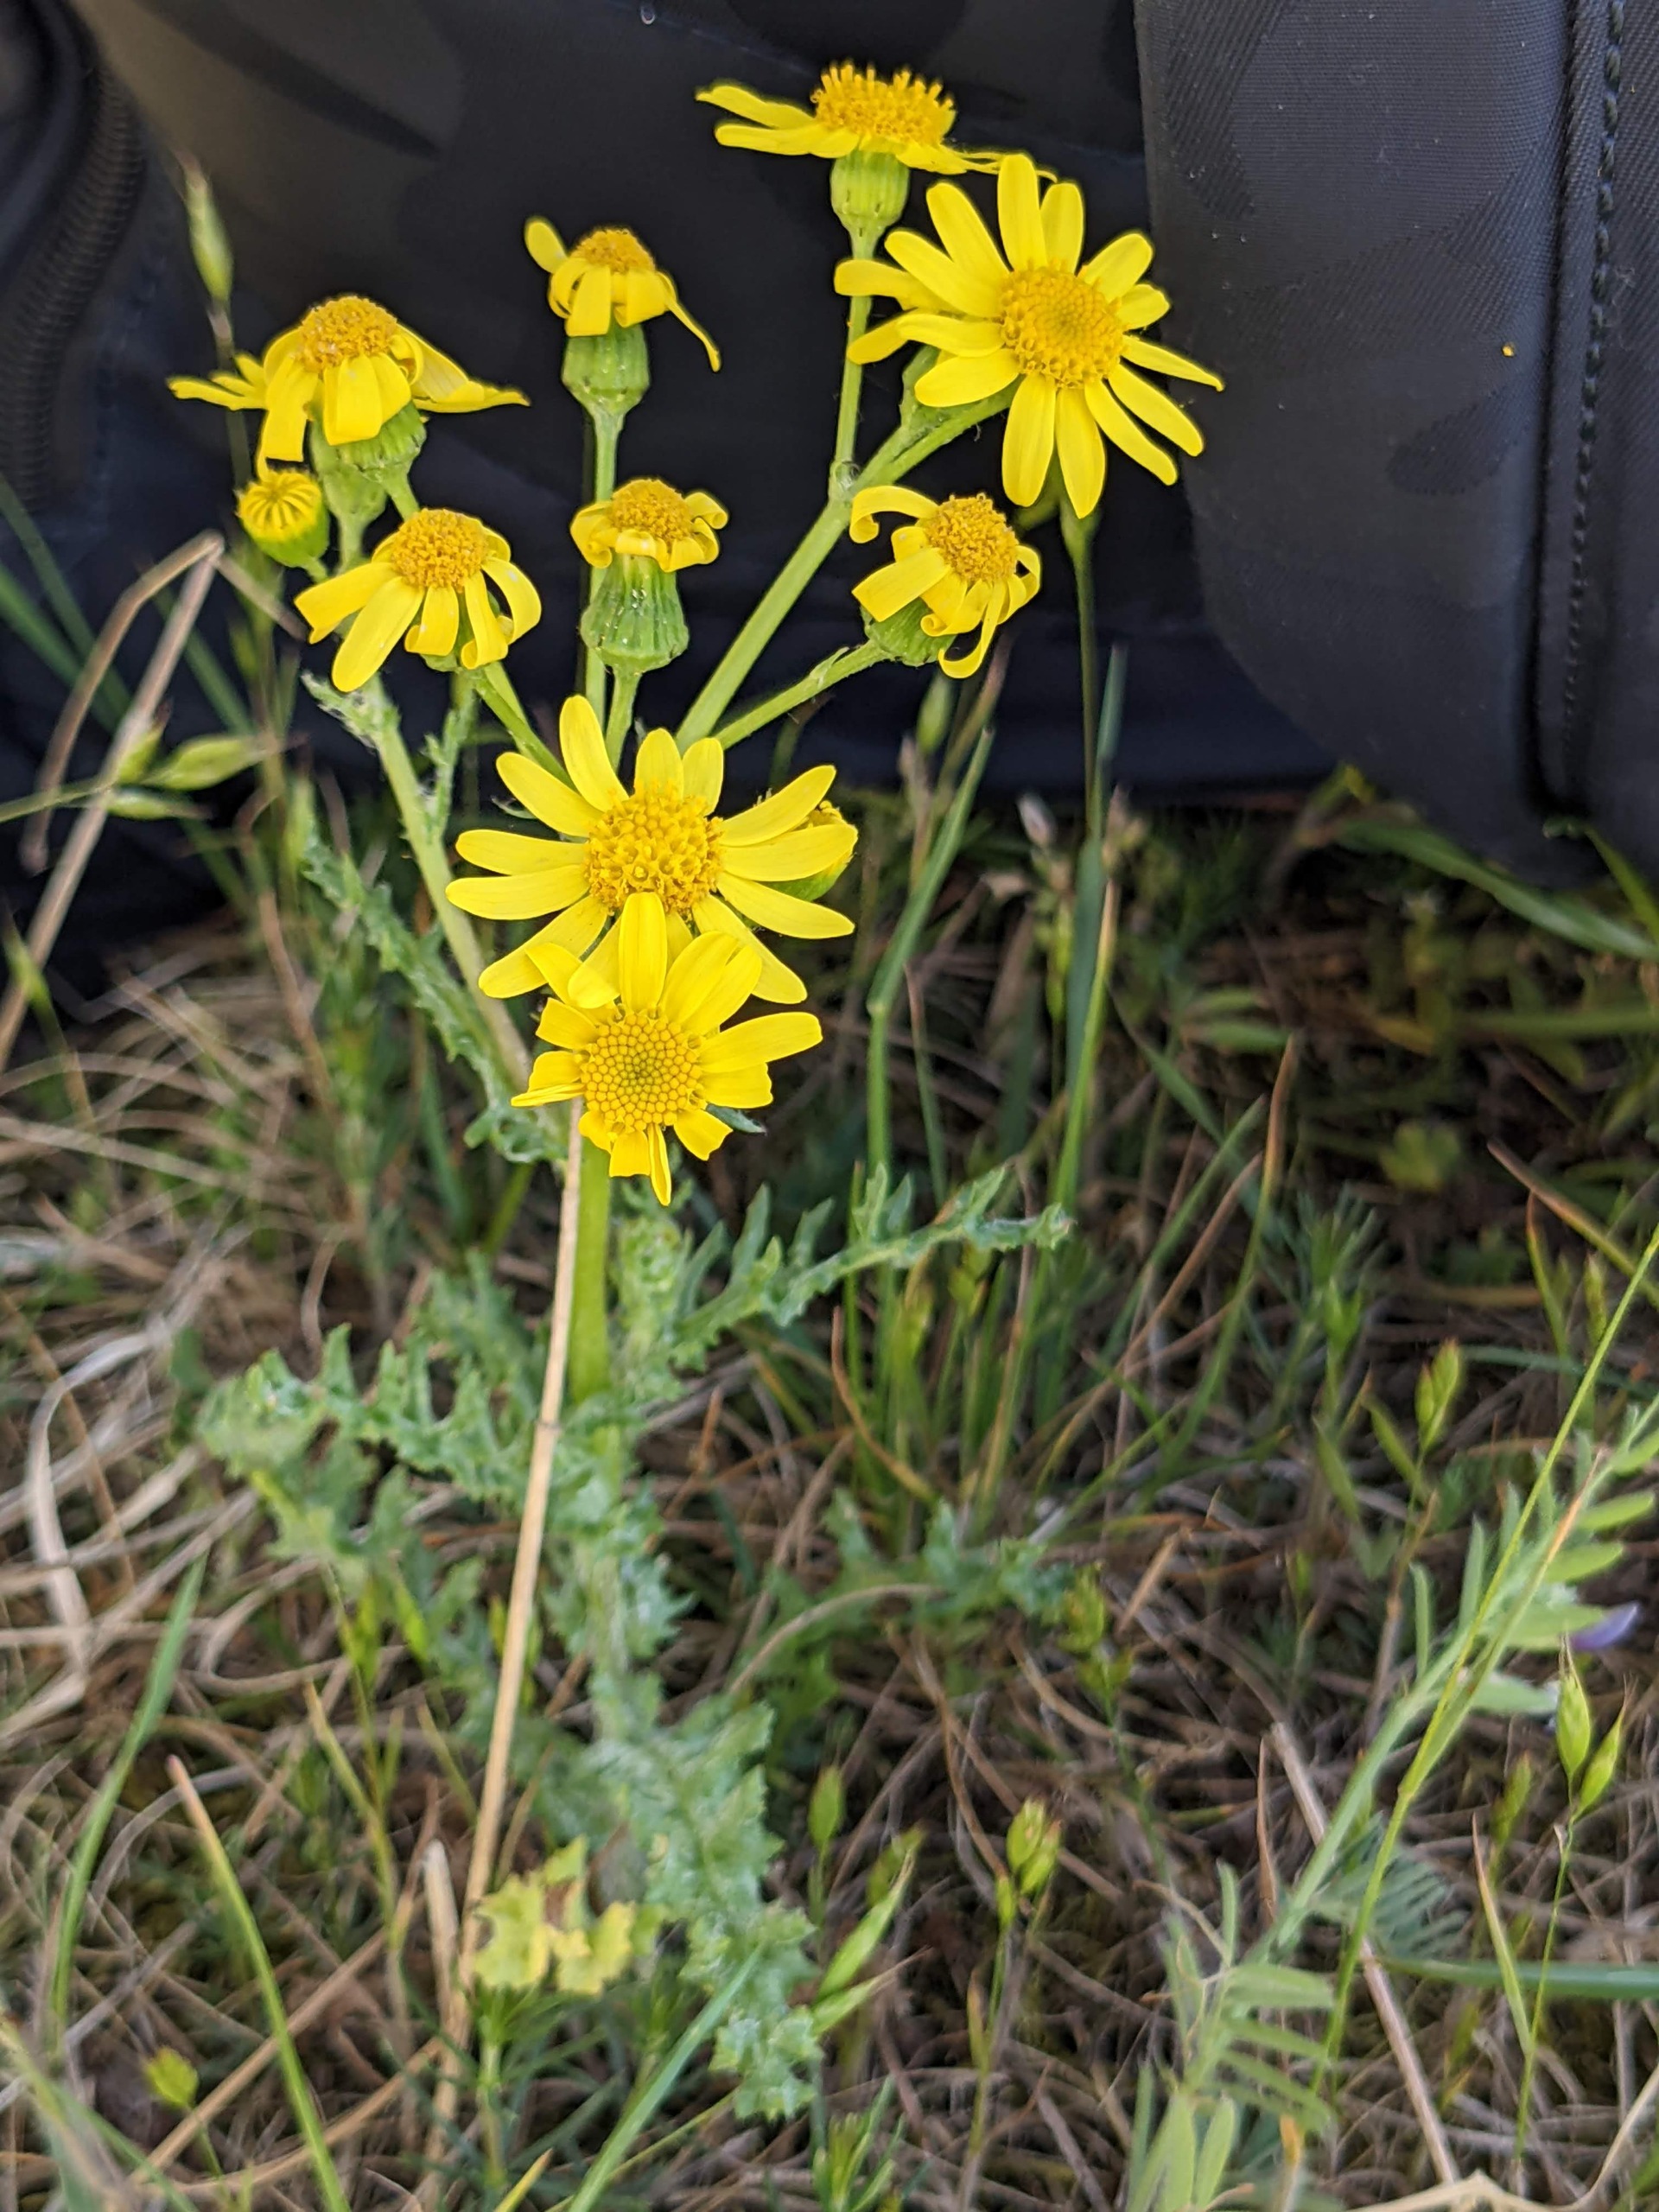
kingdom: Plantae
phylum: Tracheophyta
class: Magnoliopsida
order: Asterales
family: Asteraceae
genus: Senecio
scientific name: Senecio leucanthemifolius
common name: Vår-brandbæger
